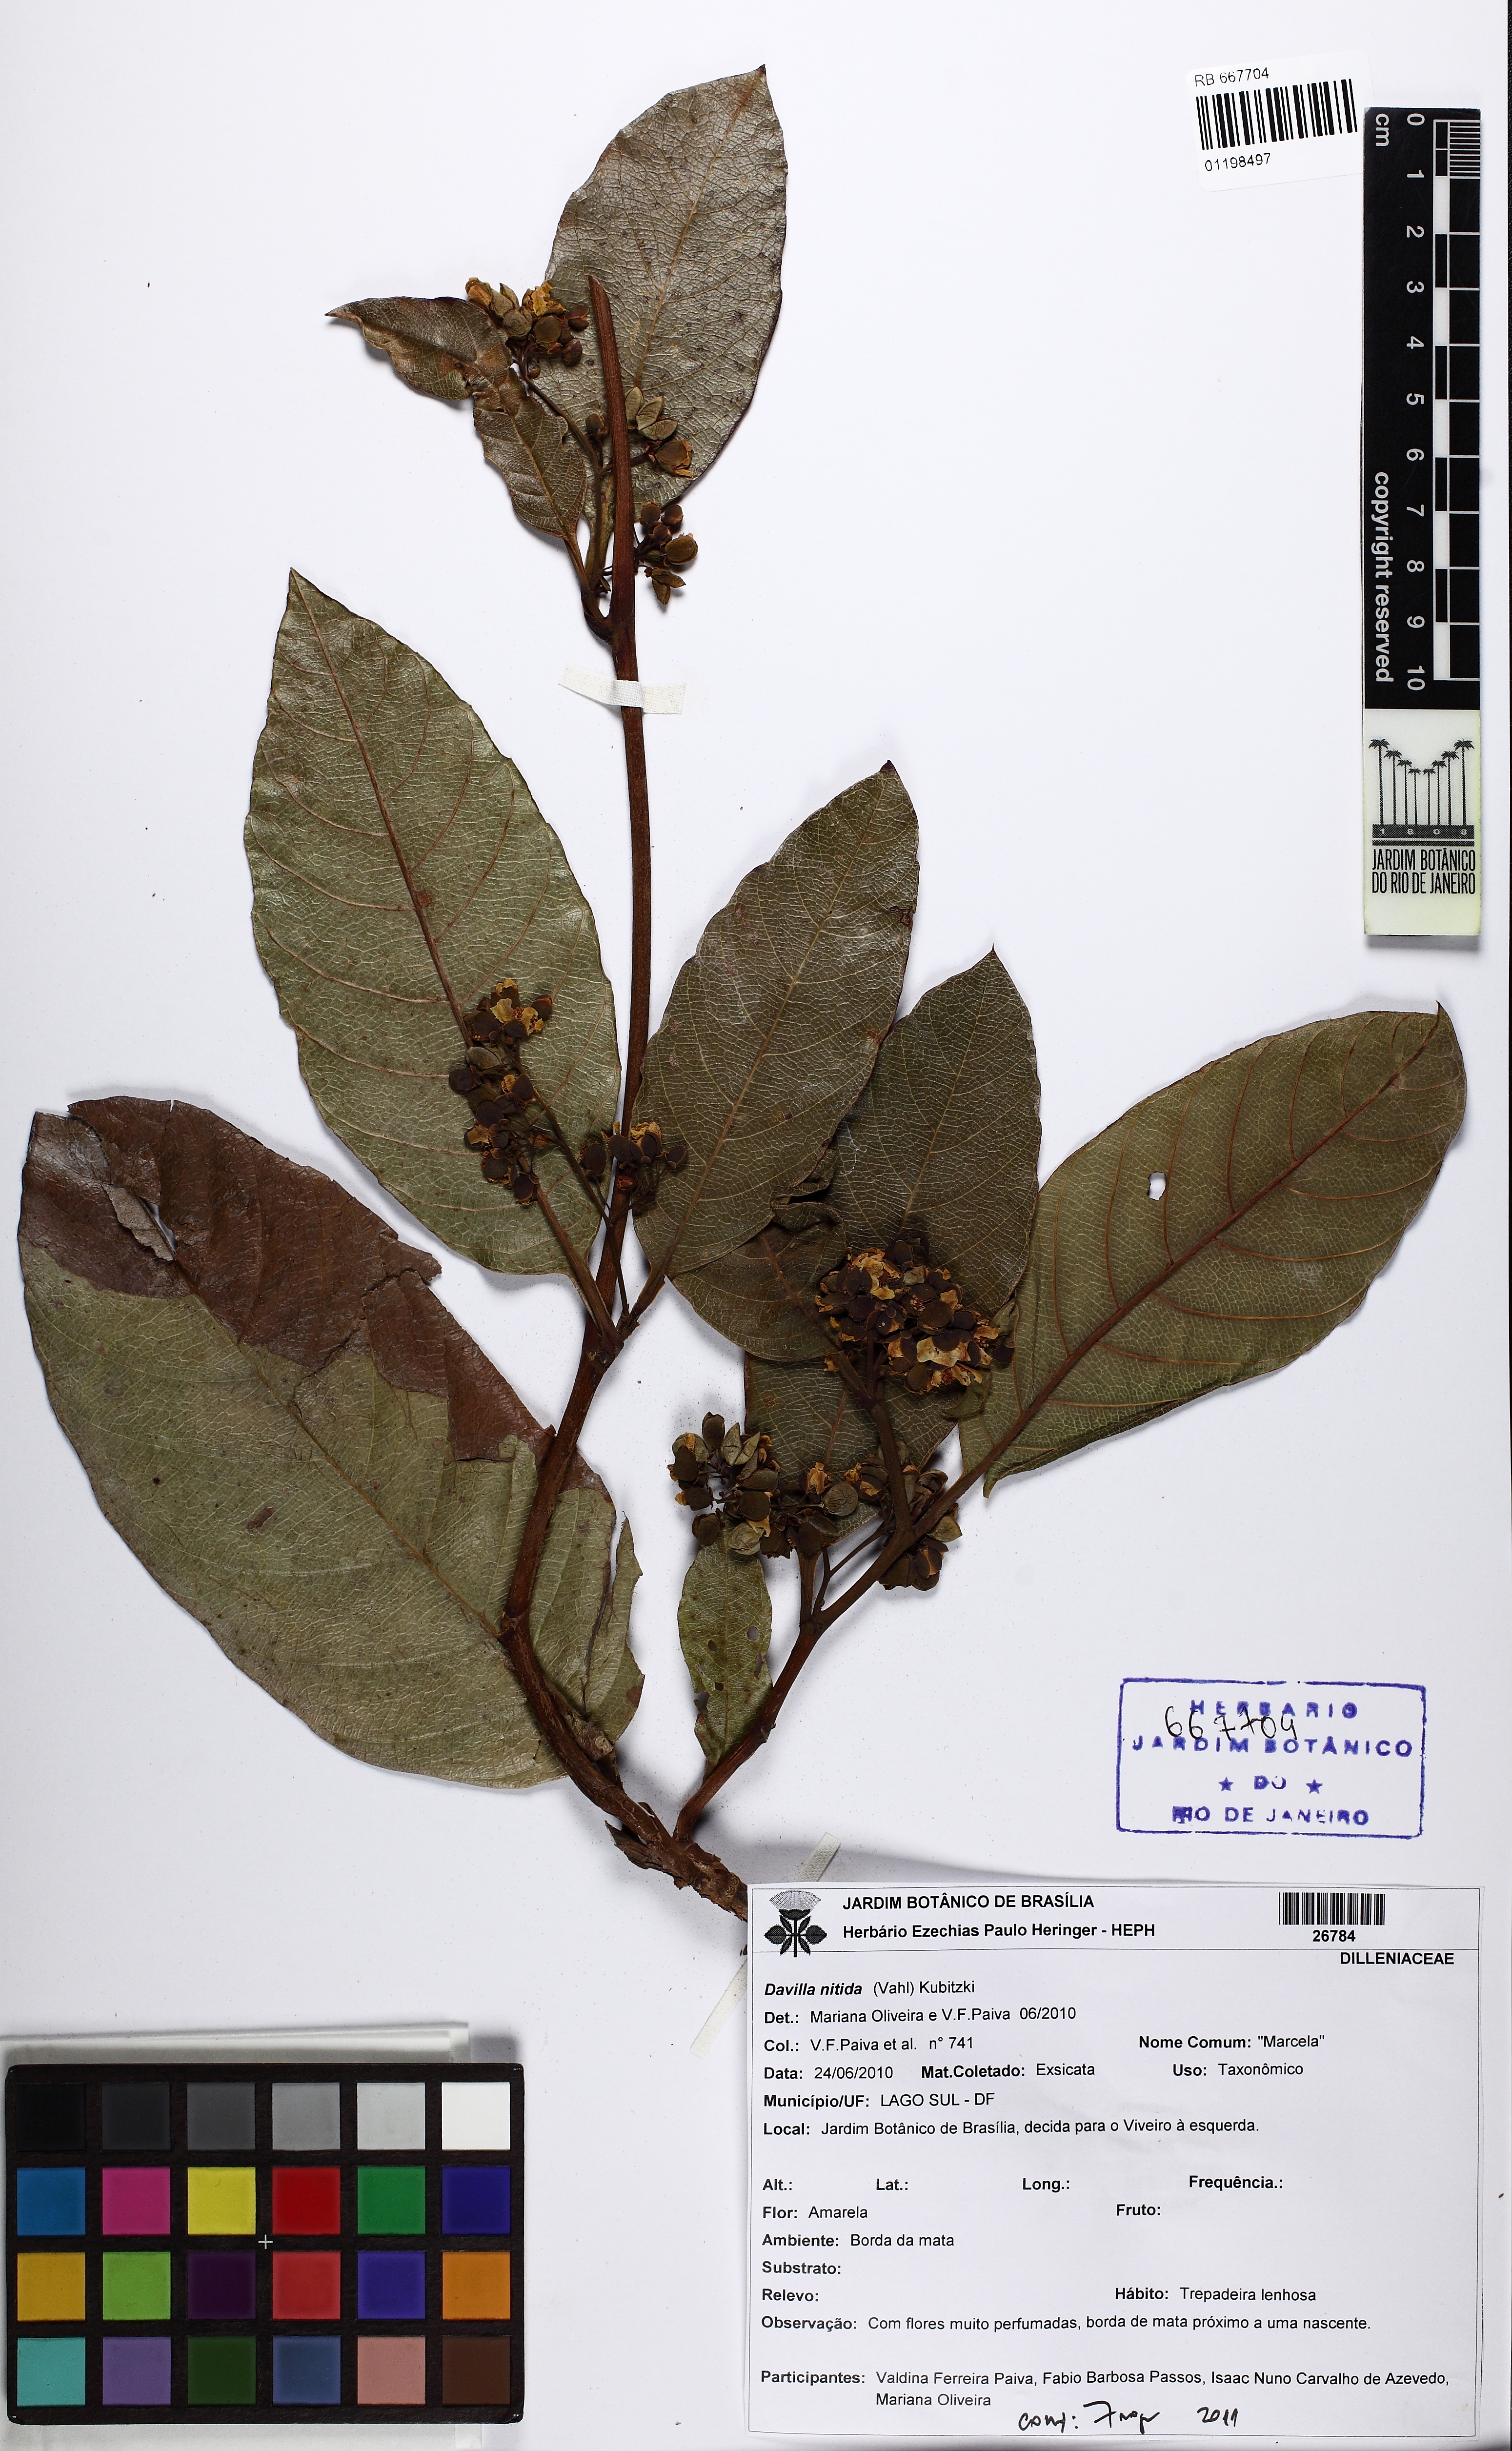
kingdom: Plantae
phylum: Tracheophyta
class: Magnoliopsida
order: Dilleniales
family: Dilleniaceae
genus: Davilla
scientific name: Davilla nitida
